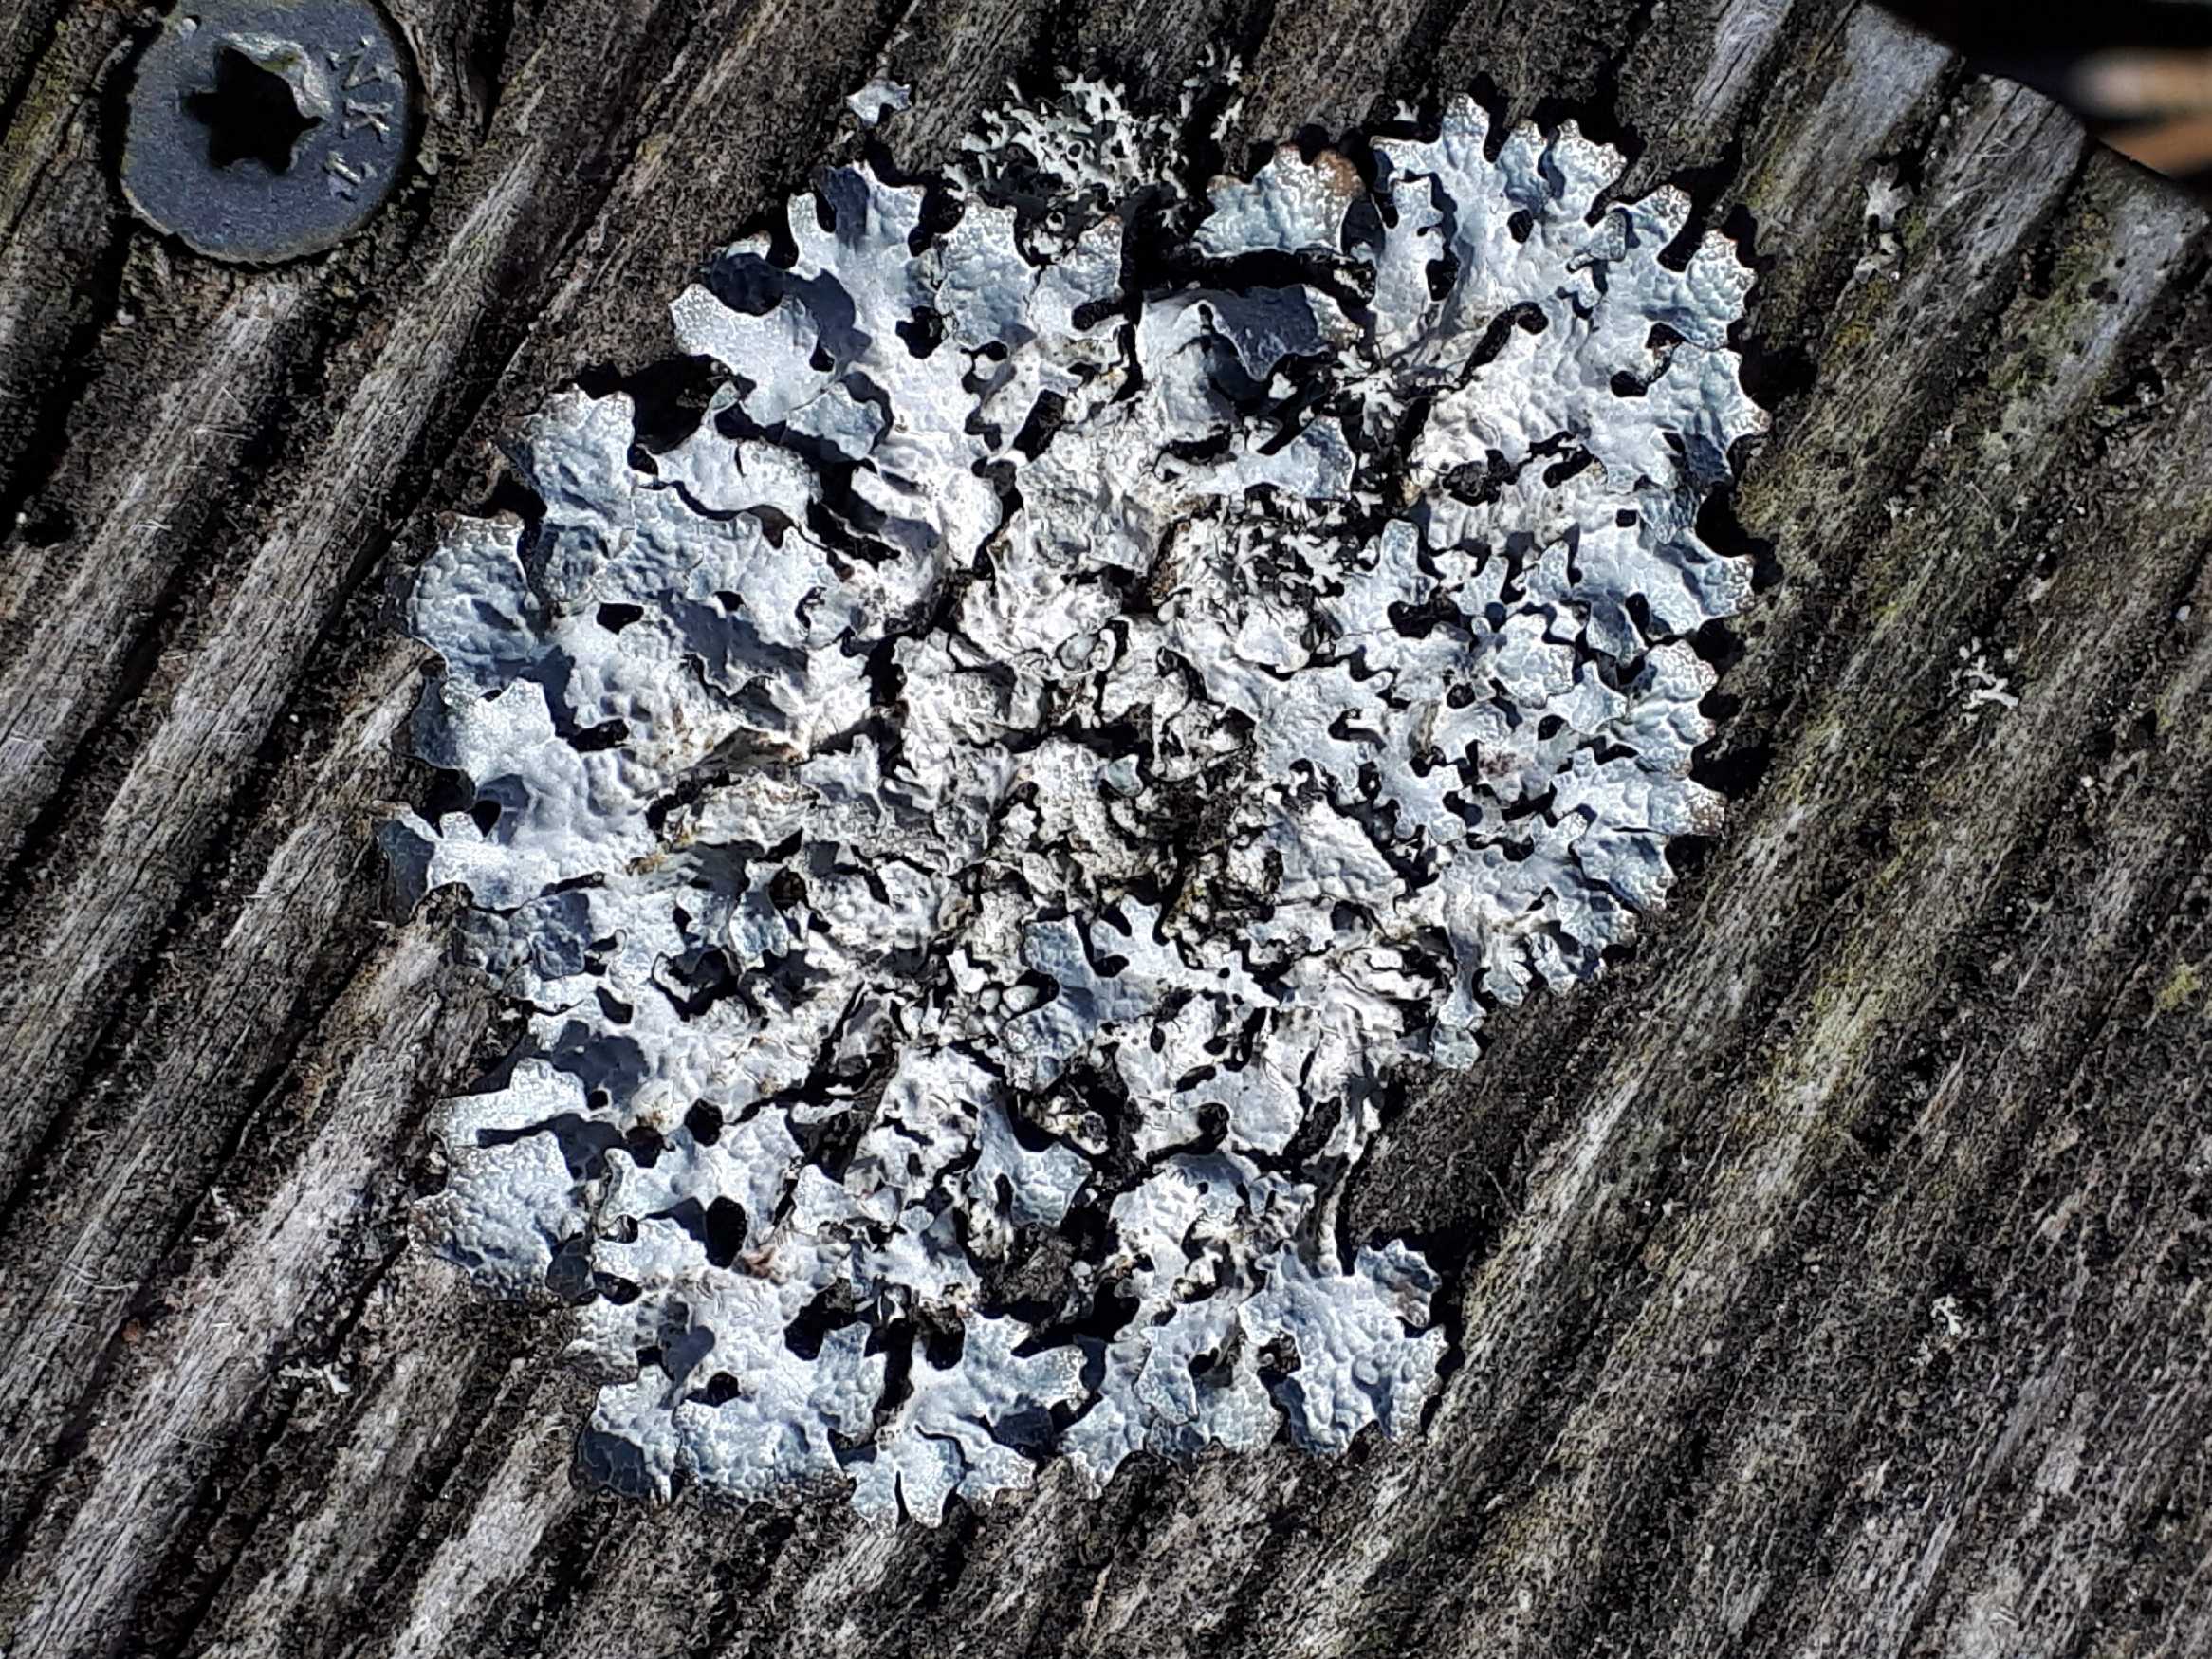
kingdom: Fungi
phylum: Ascomycota
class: Lecanoromycetes
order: Lecanorales
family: Parmeliaceae
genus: Parmelia
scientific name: Parmelia sulcata
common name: rynket skållav
